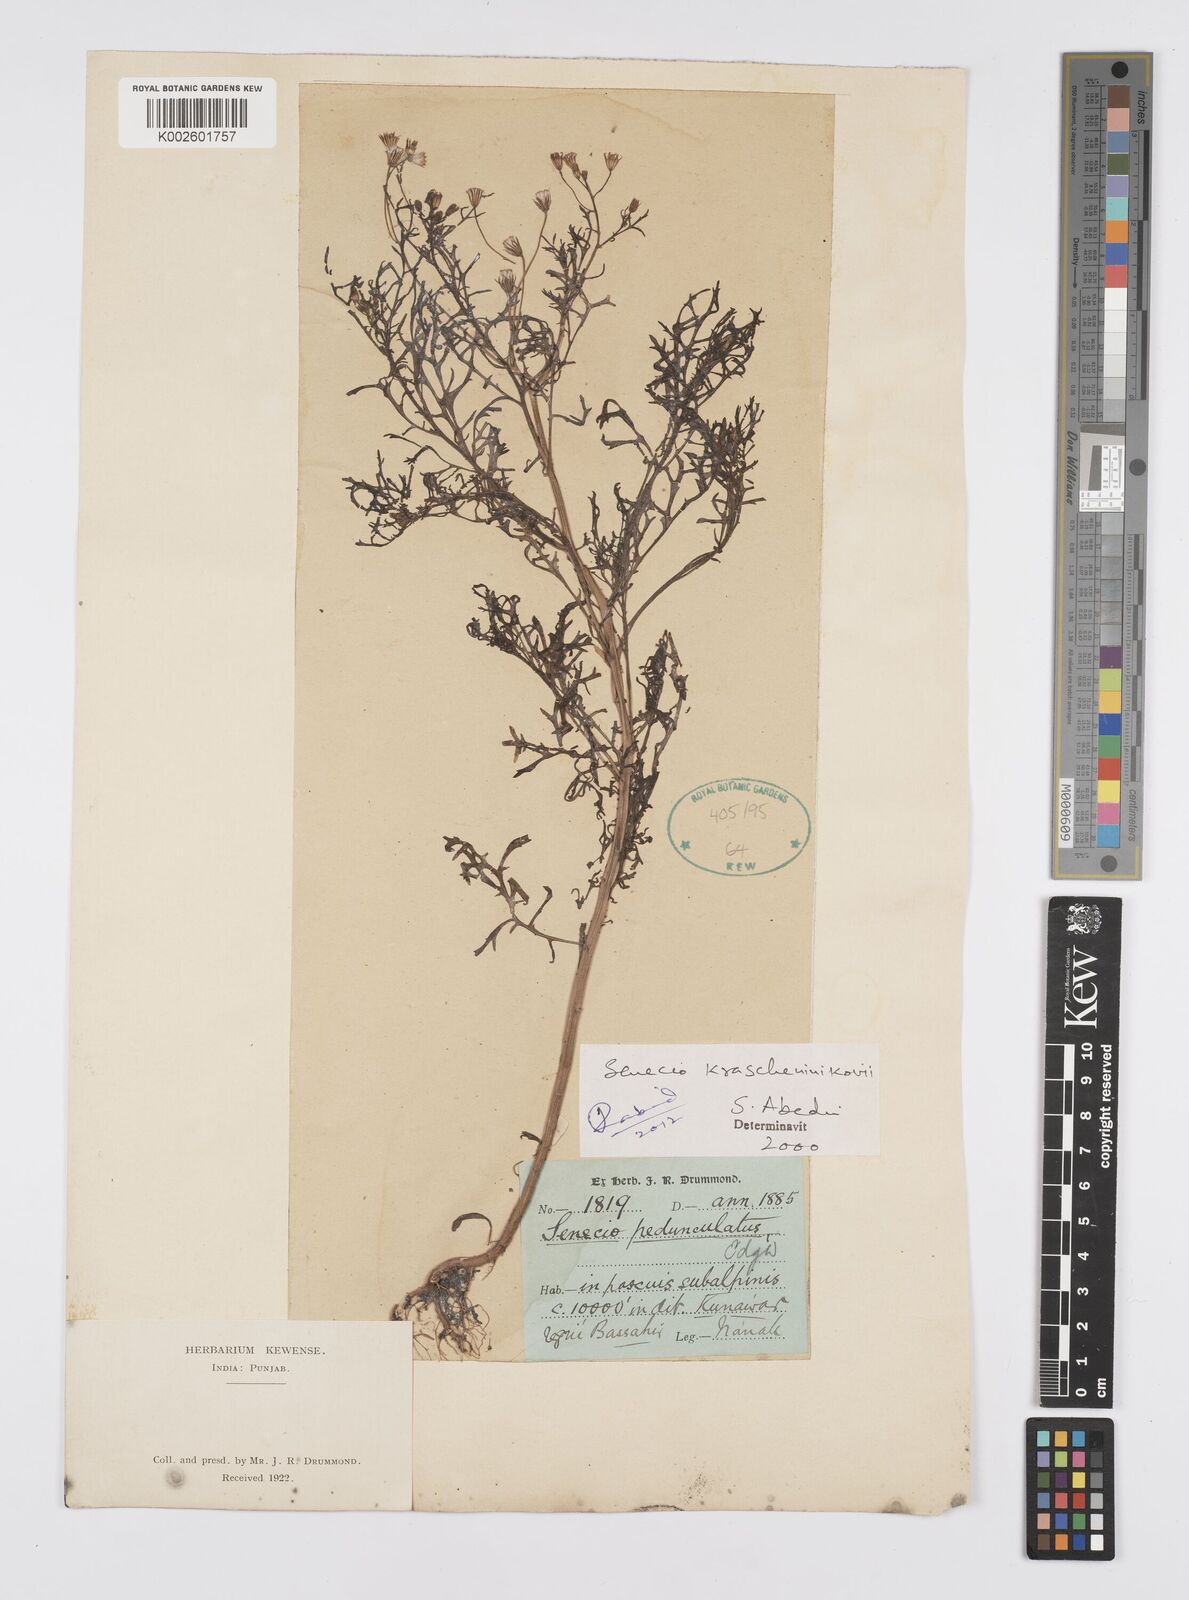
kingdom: Plantae
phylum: Tracheophyta
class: Magnoliopsida
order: Asterales
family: Asteraceae
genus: Senecio
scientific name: Senecio krascheninnikovii
